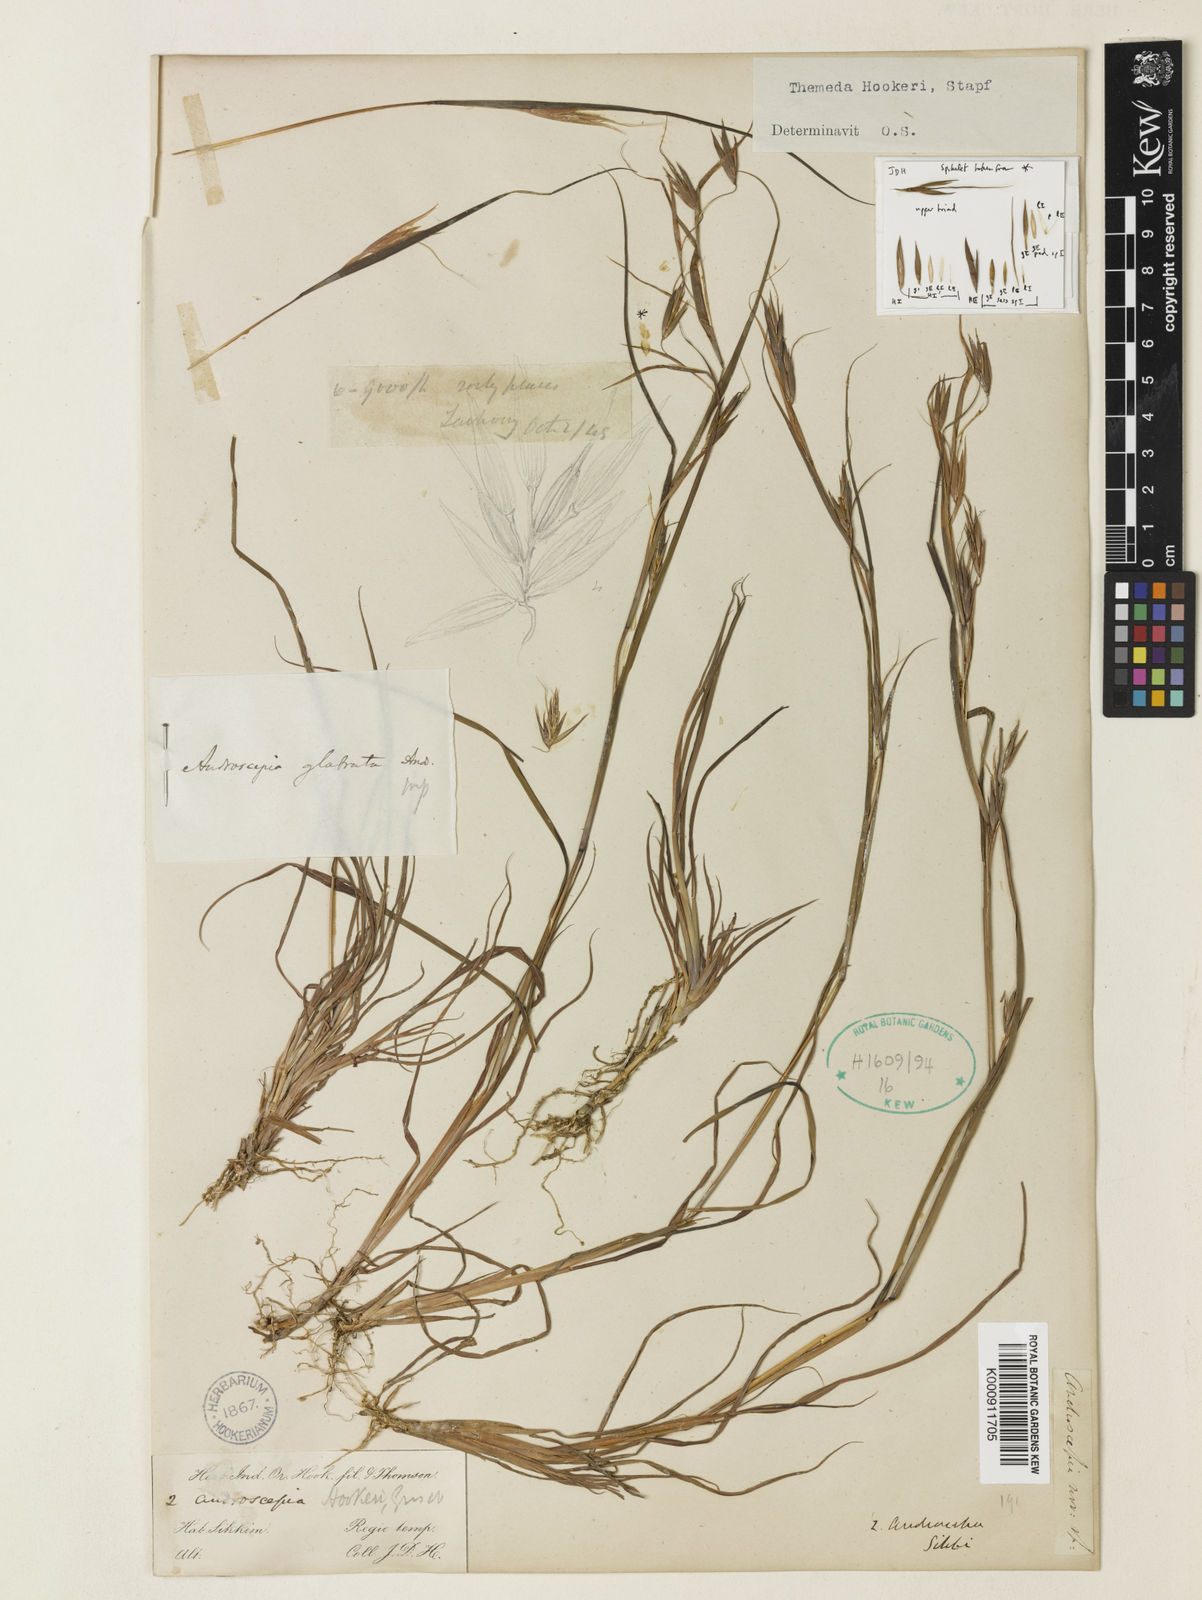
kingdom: Plantae
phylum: Tracheophyta
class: Liliopsida
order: Poales
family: Poaceae
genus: Themeda
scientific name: Themeda
